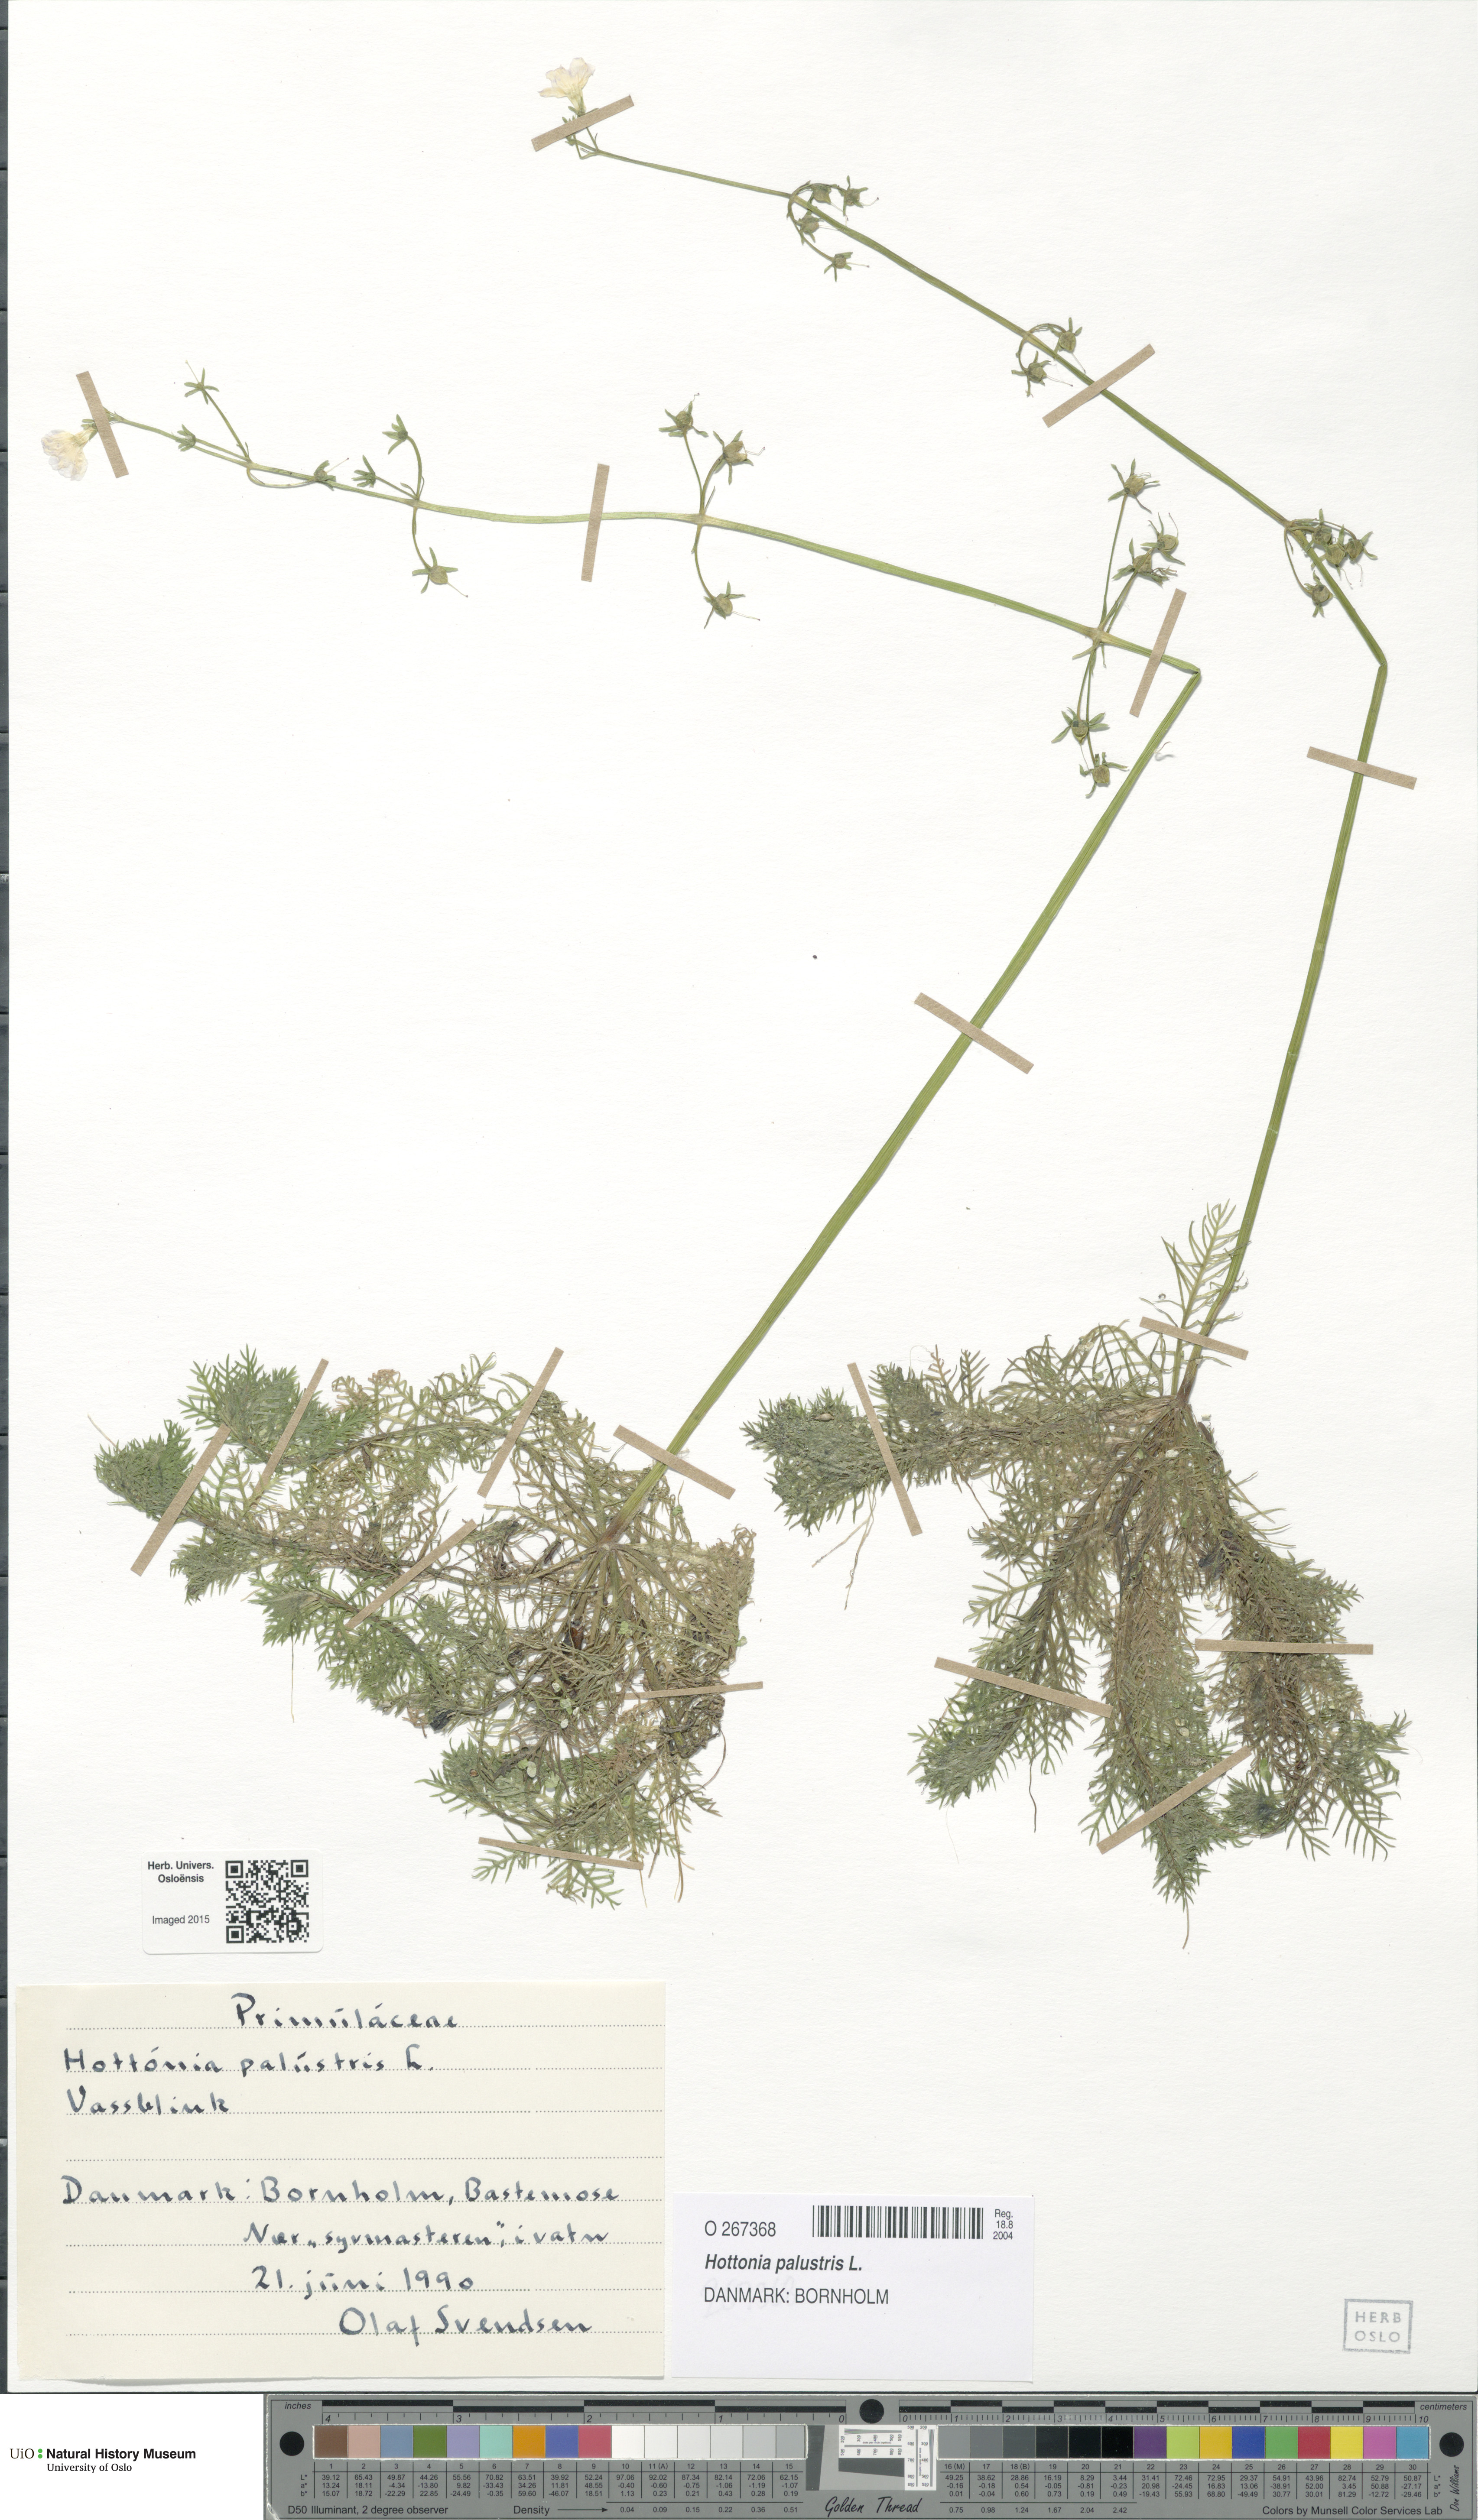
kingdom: Plantae
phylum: Tracheophyta
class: Magnoliopsida
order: Ericales
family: Primulaceae
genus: Hottonia
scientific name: Hottonia palustris
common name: Water-violet
